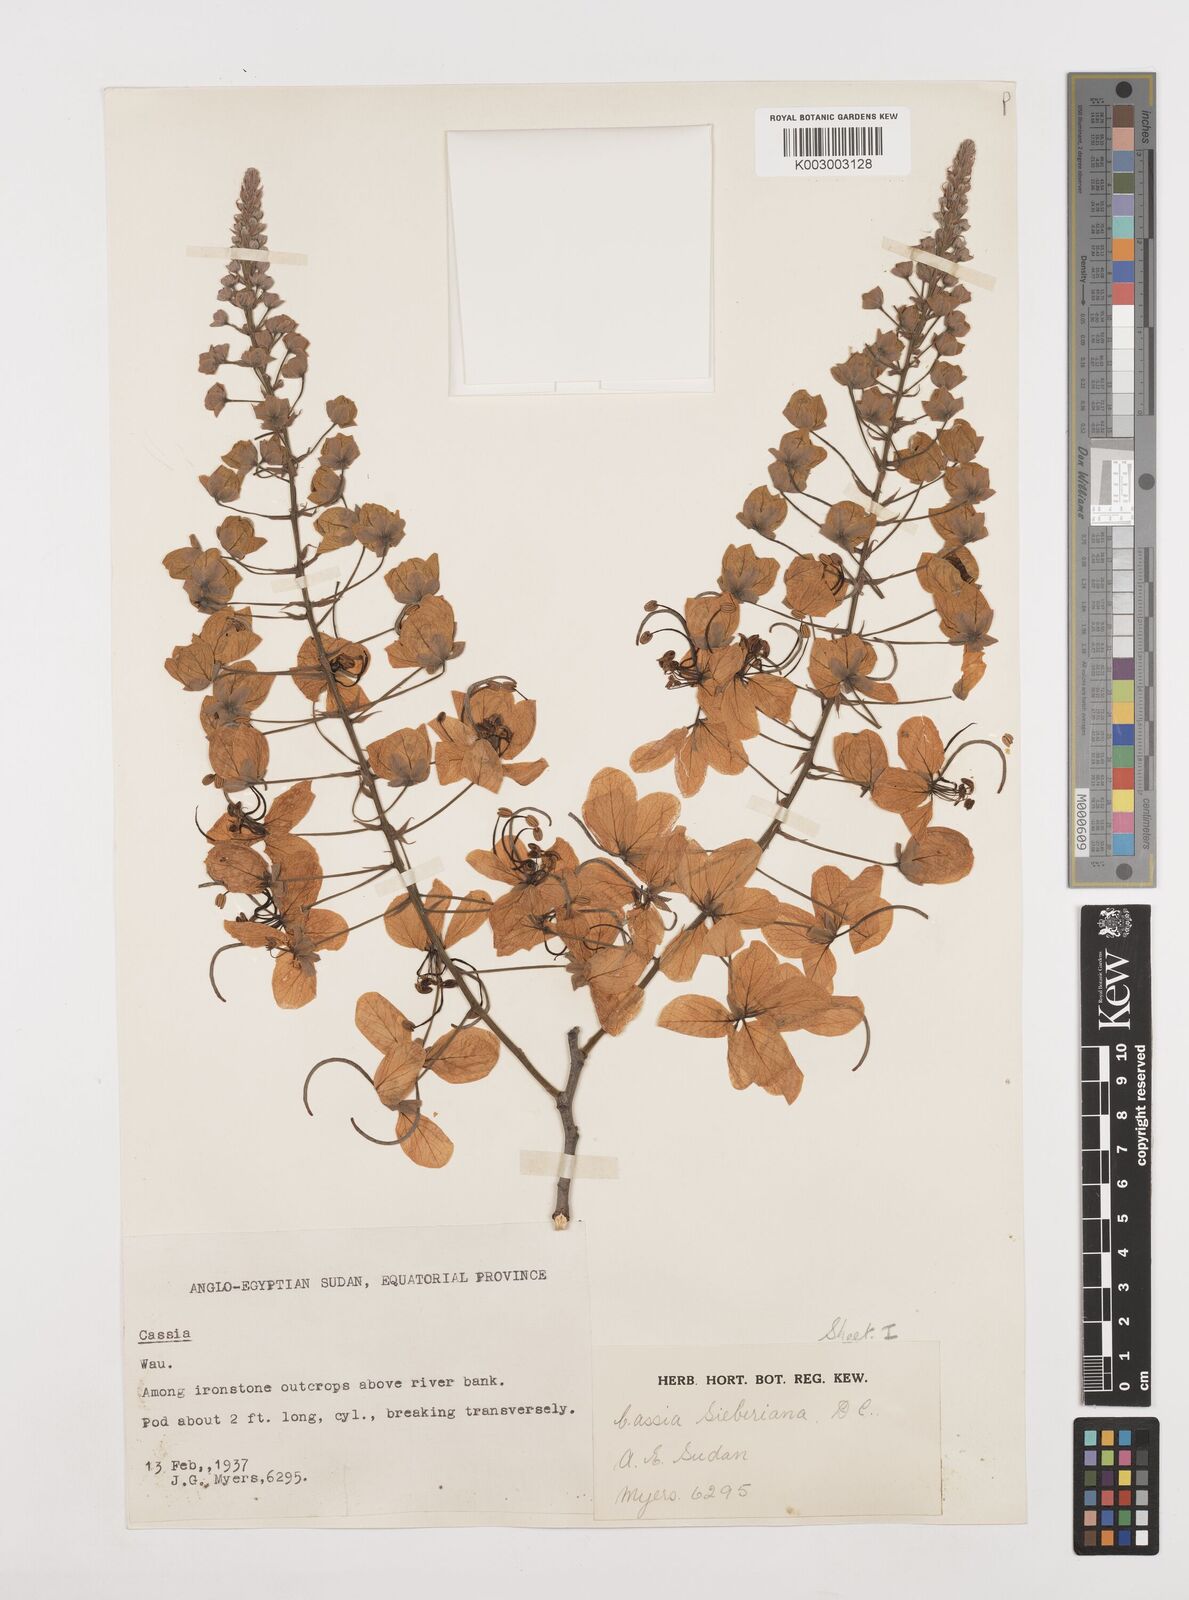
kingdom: Plantae
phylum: Tracheophyta
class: Magnoliopsida
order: Fabales
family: Fabaceae
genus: Cassia
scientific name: Cassia sieberiana
